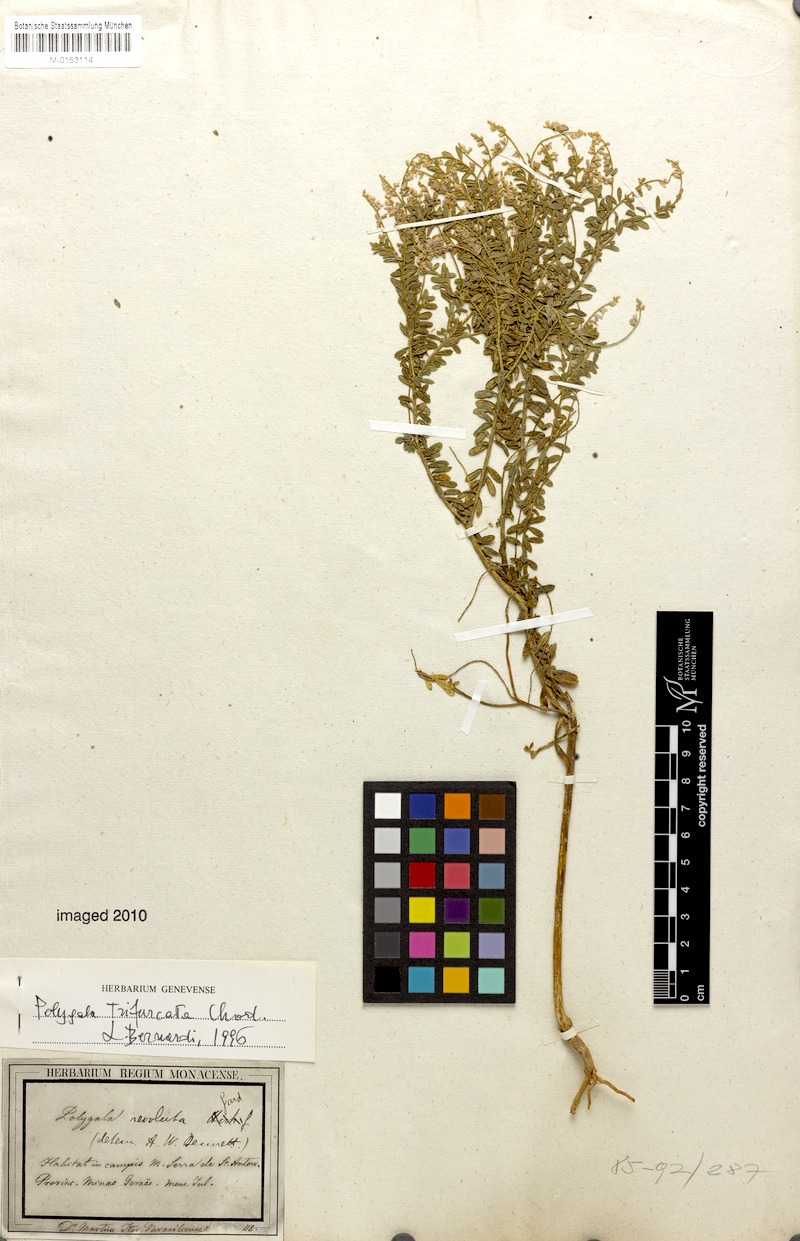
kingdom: Plantae
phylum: Tracheophyta
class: Magnoliopsida
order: Fabales
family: Polygalaceae
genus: Polygala
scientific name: Polygala trifurcata
